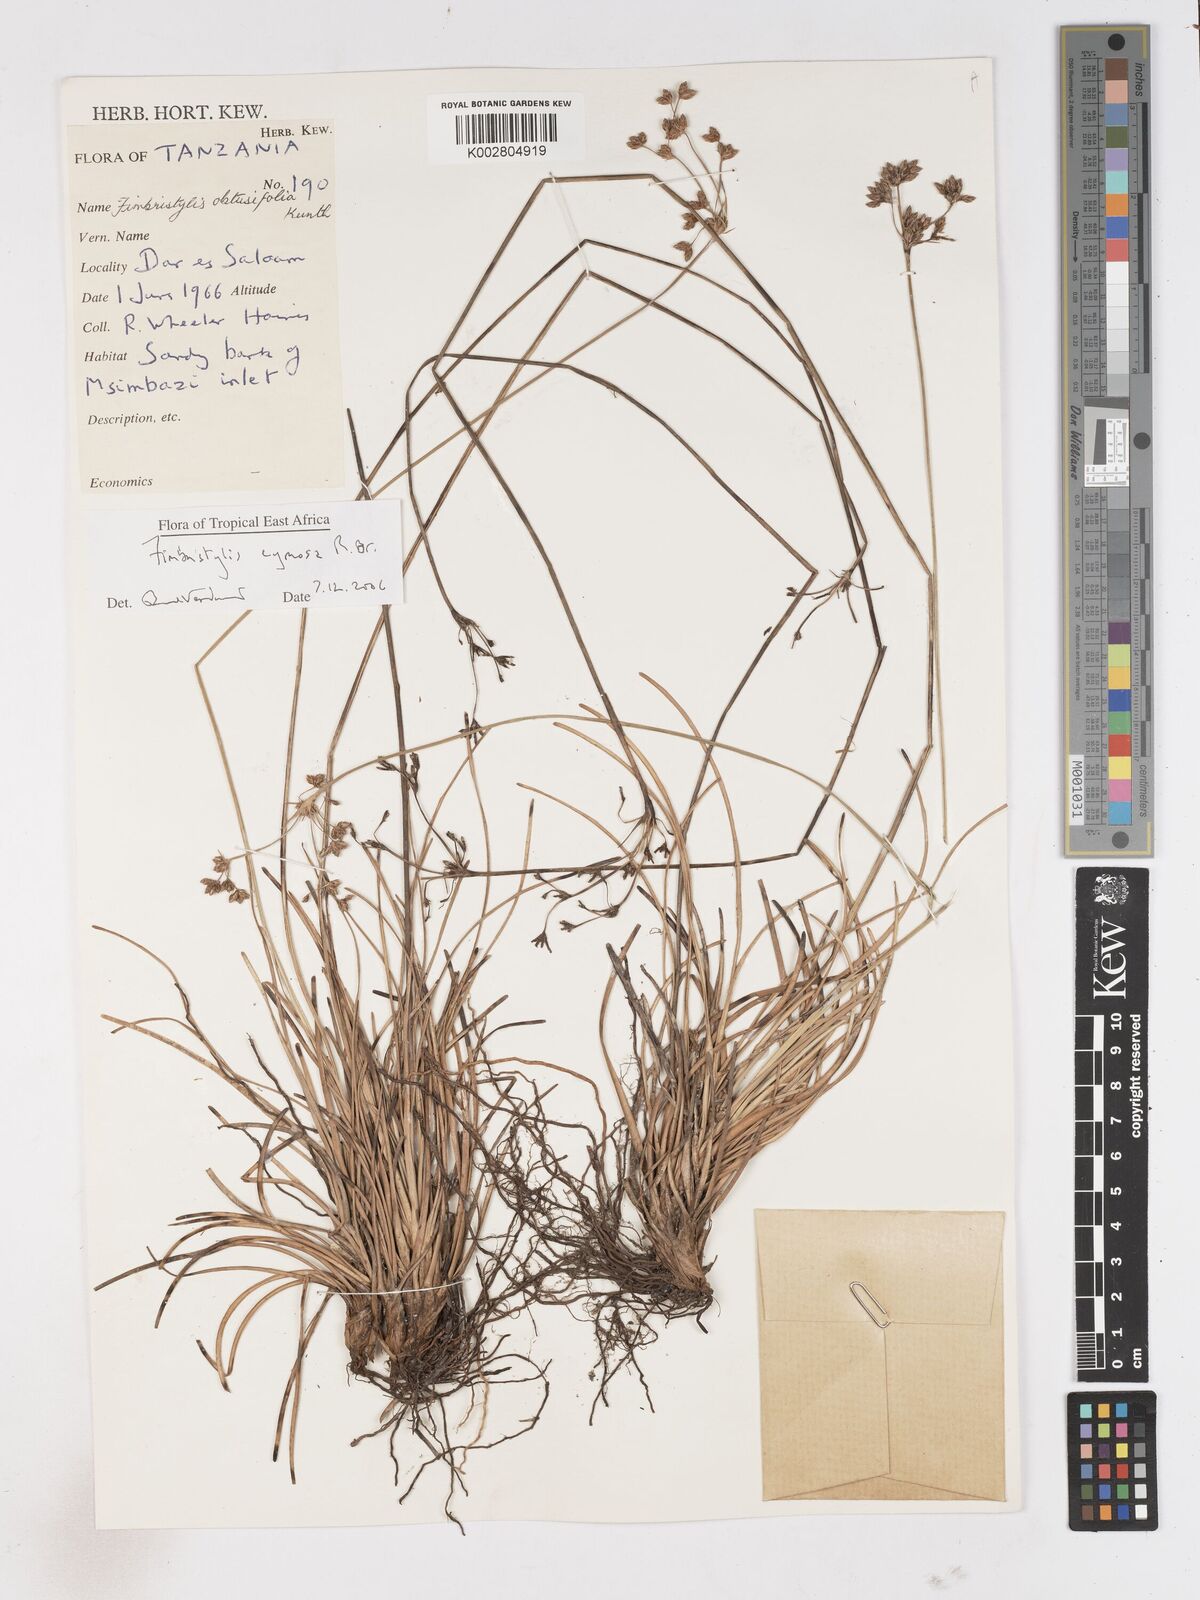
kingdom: Plantae
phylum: Tracheophyta
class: Liliopsida
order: Poales
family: Cyperaceae
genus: Fimbristylis
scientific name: Fimbristylis cymosa
